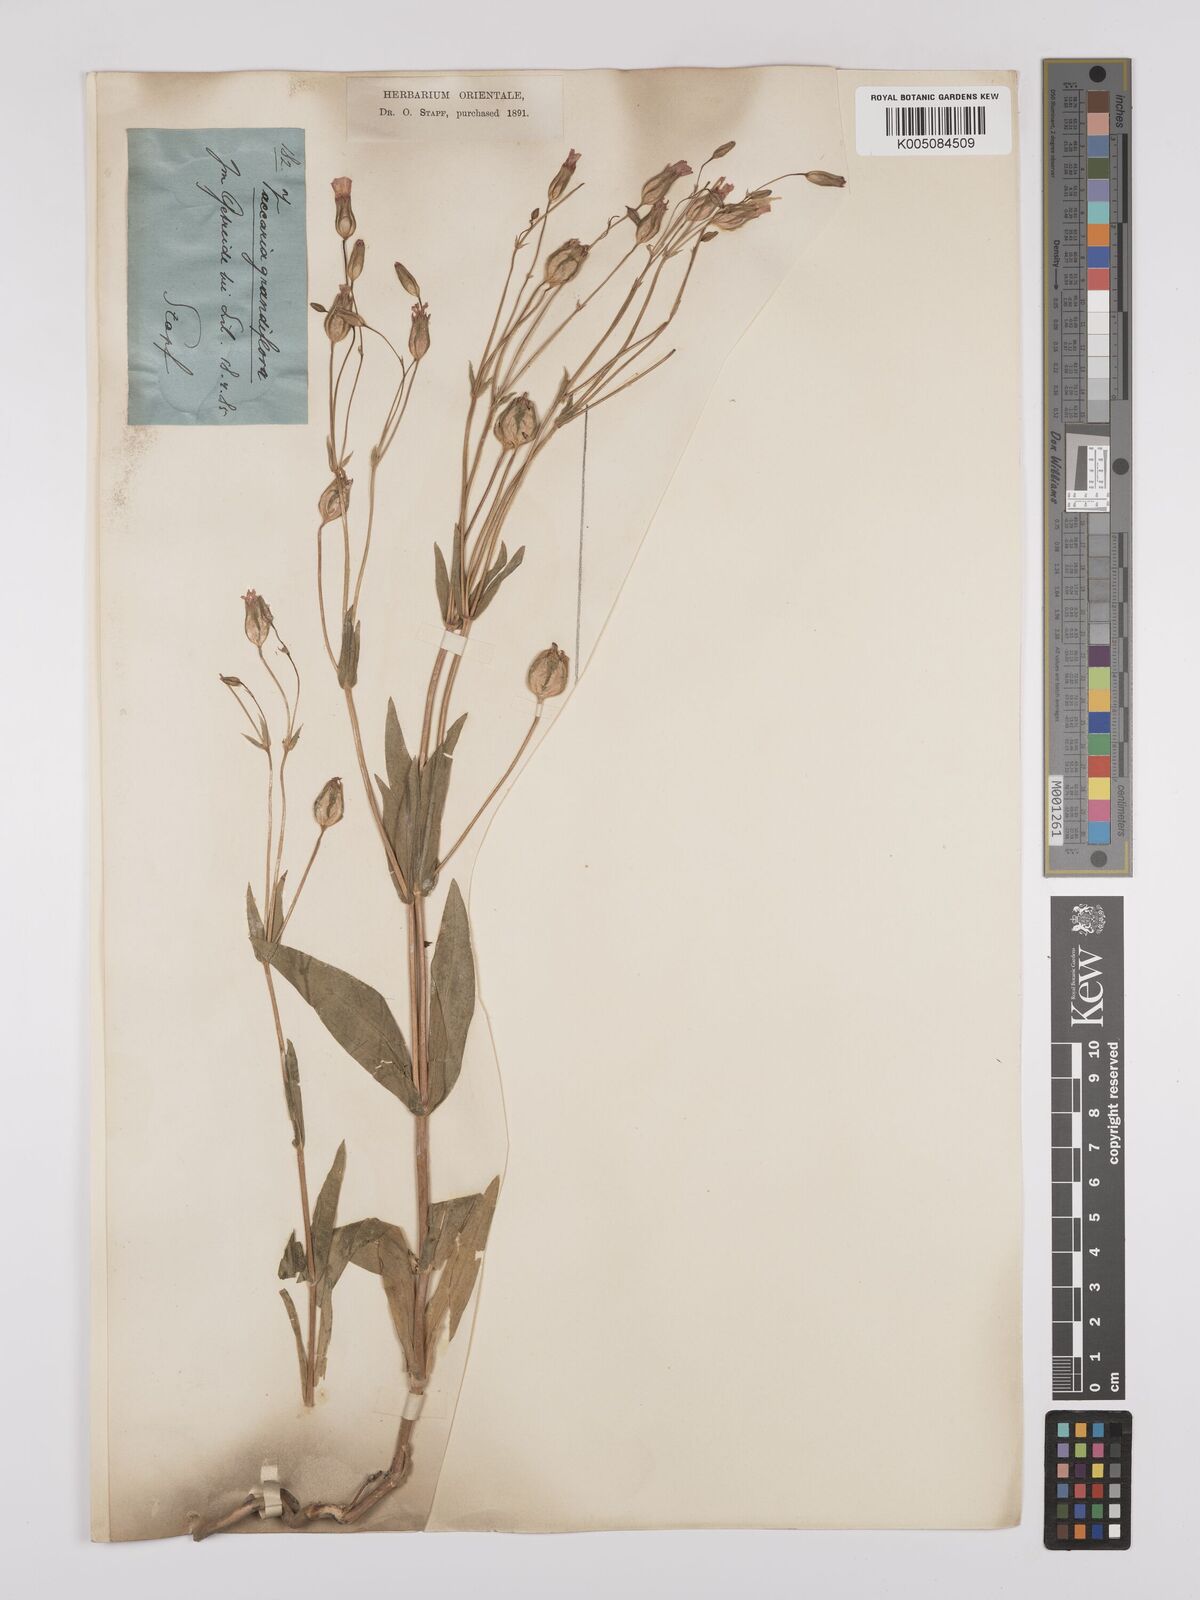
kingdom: Plantae
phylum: Tracheophyta
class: Magnoliopsida
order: Caryophyllales
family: Caryophyllaceae
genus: Gypsophila
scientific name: Gypsophila vaccaria
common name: Cow soapwort
